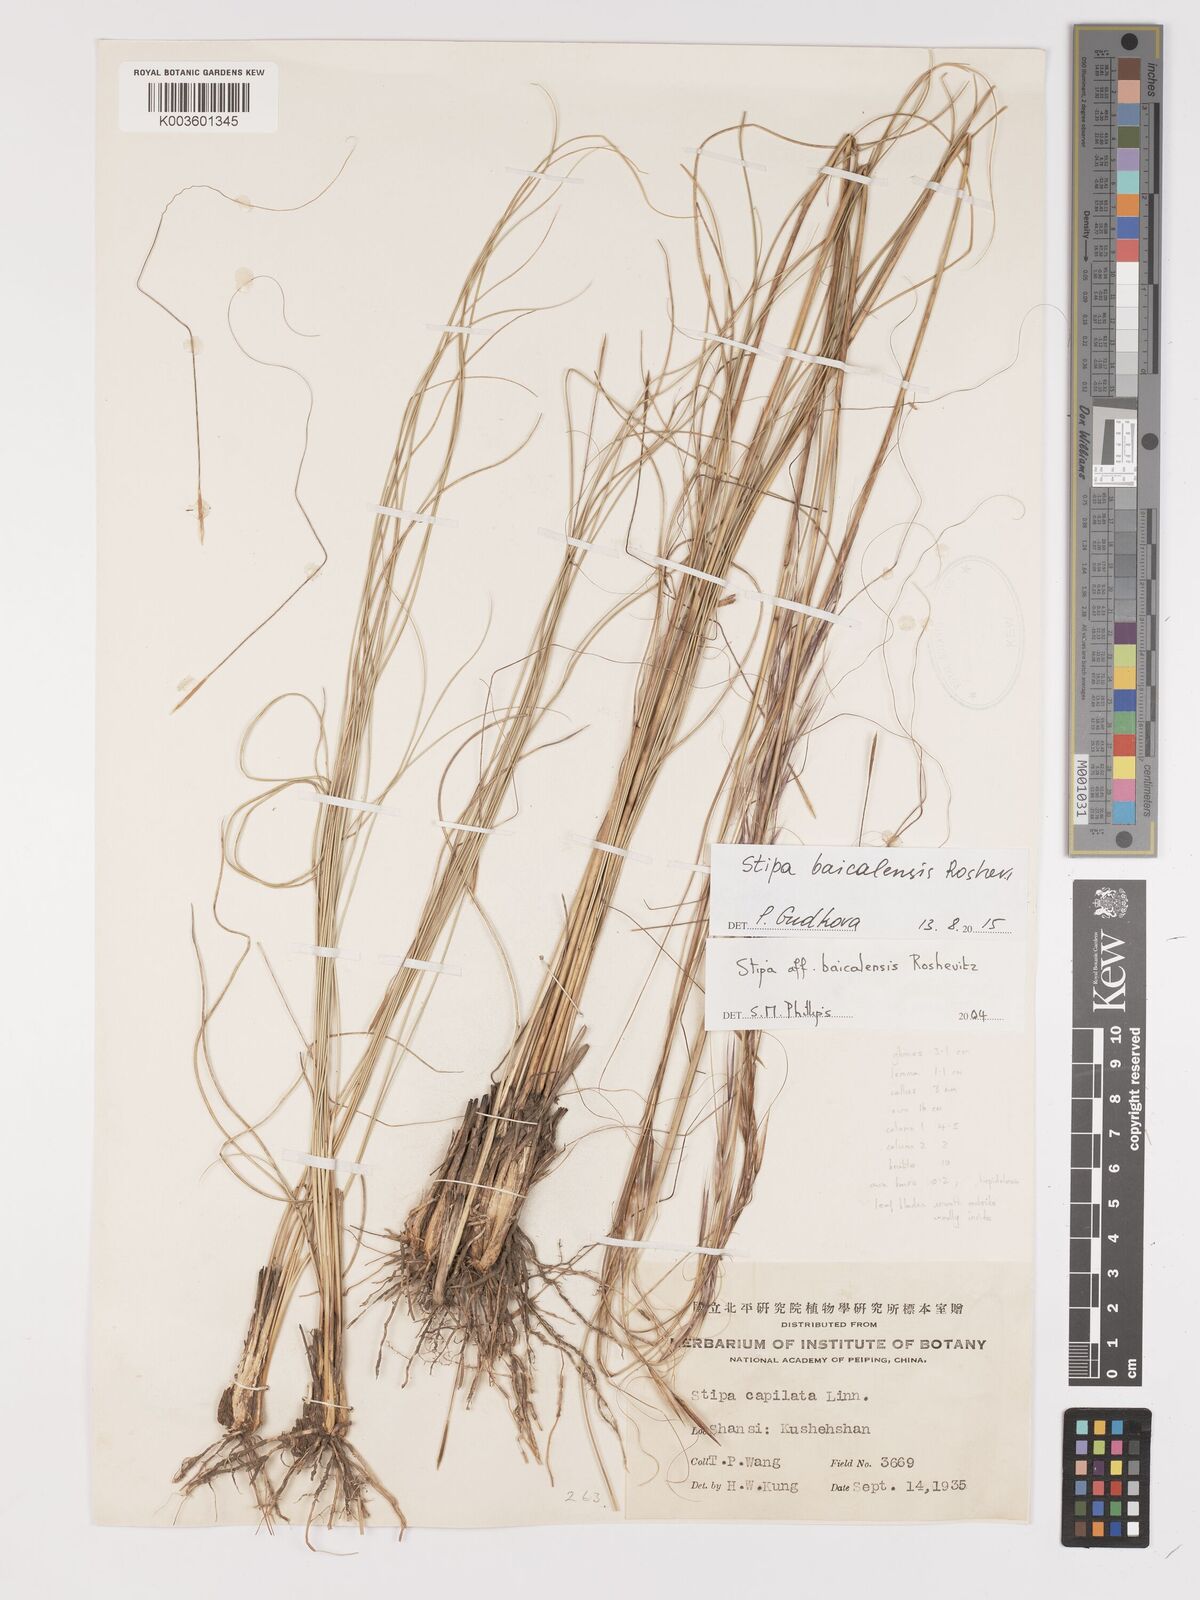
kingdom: Plantae
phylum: Tracheophyta
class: Liliopsida
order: Poales
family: Poaceae
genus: Stipa
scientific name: Stipa baicalensis
